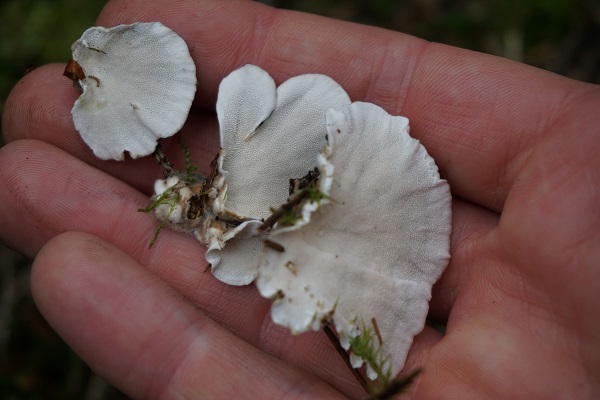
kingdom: Fungi
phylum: Basidiomycota
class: Agaricomycetes
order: Polyporales
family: Polyporaceae
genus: Trametes
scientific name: Trametes versicolor
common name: broget læderporesvamp
